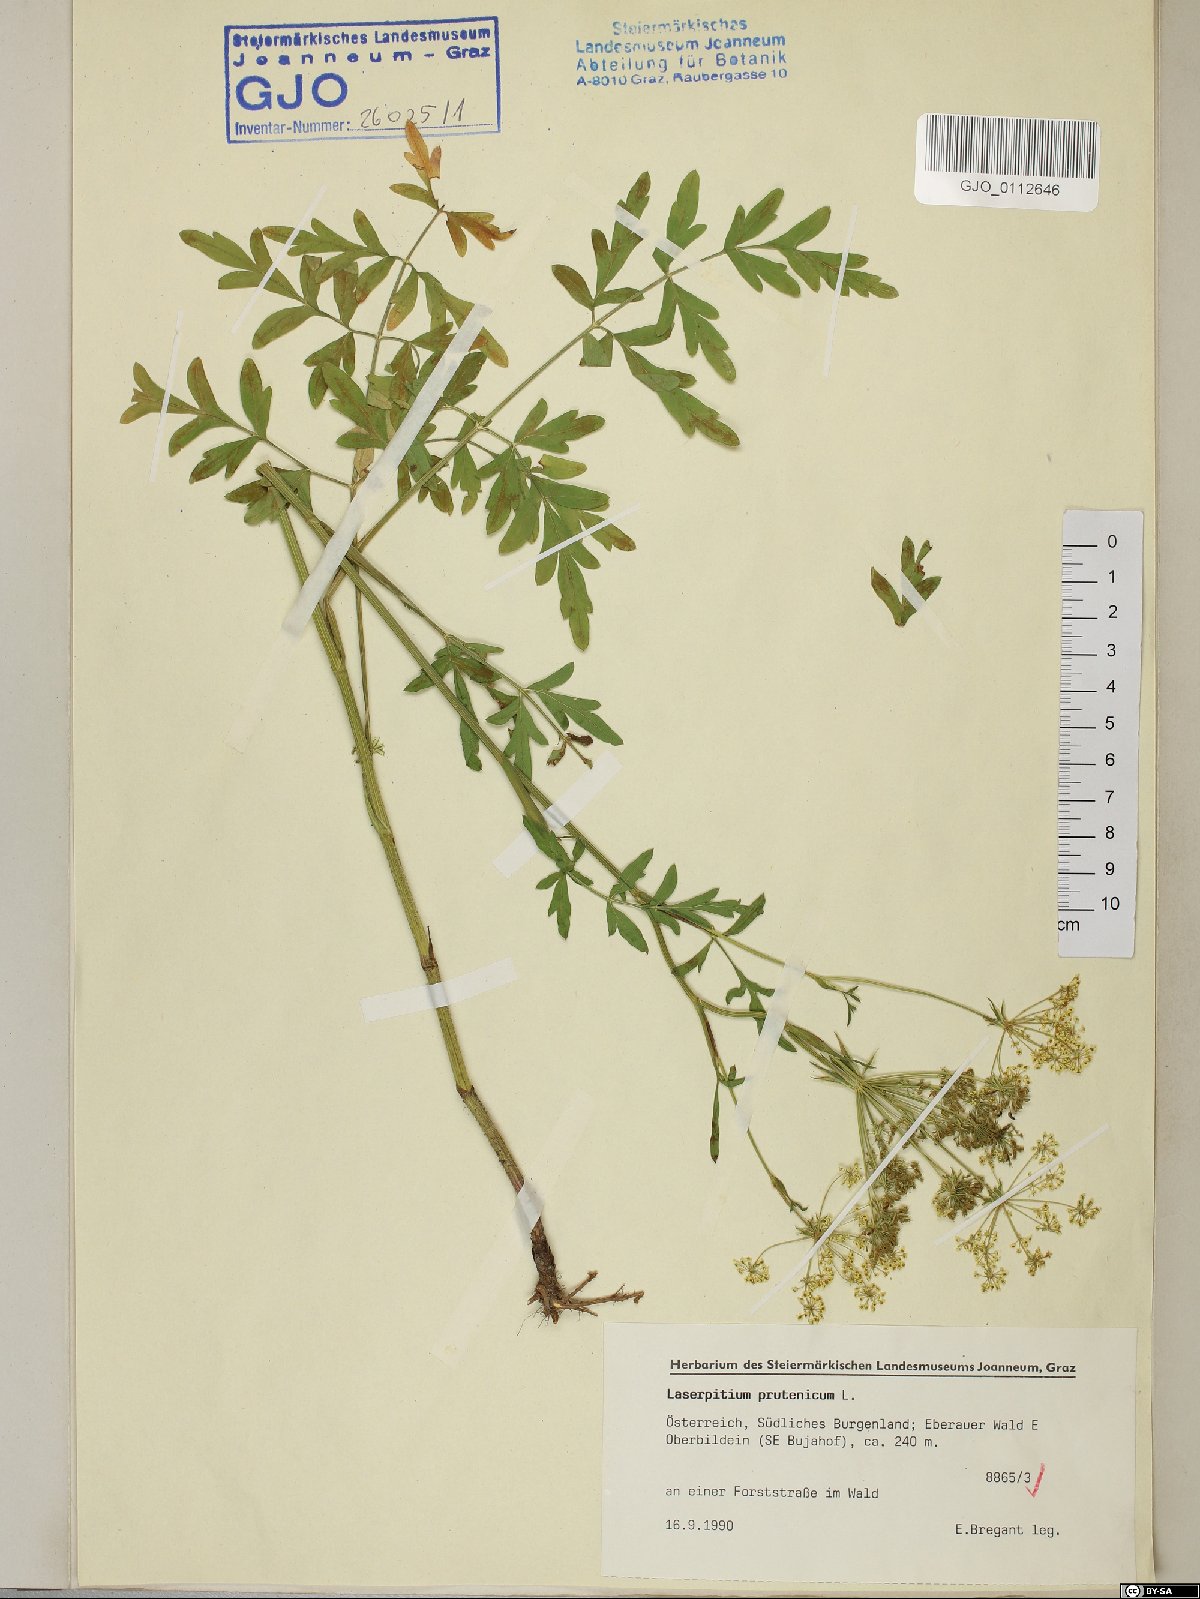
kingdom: Plantae
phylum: Tracheophyta
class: Magnoliopsida
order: Apiales
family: Apiaceae
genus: Silphiodaucus
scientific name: Silphiodaucus prutenicus
